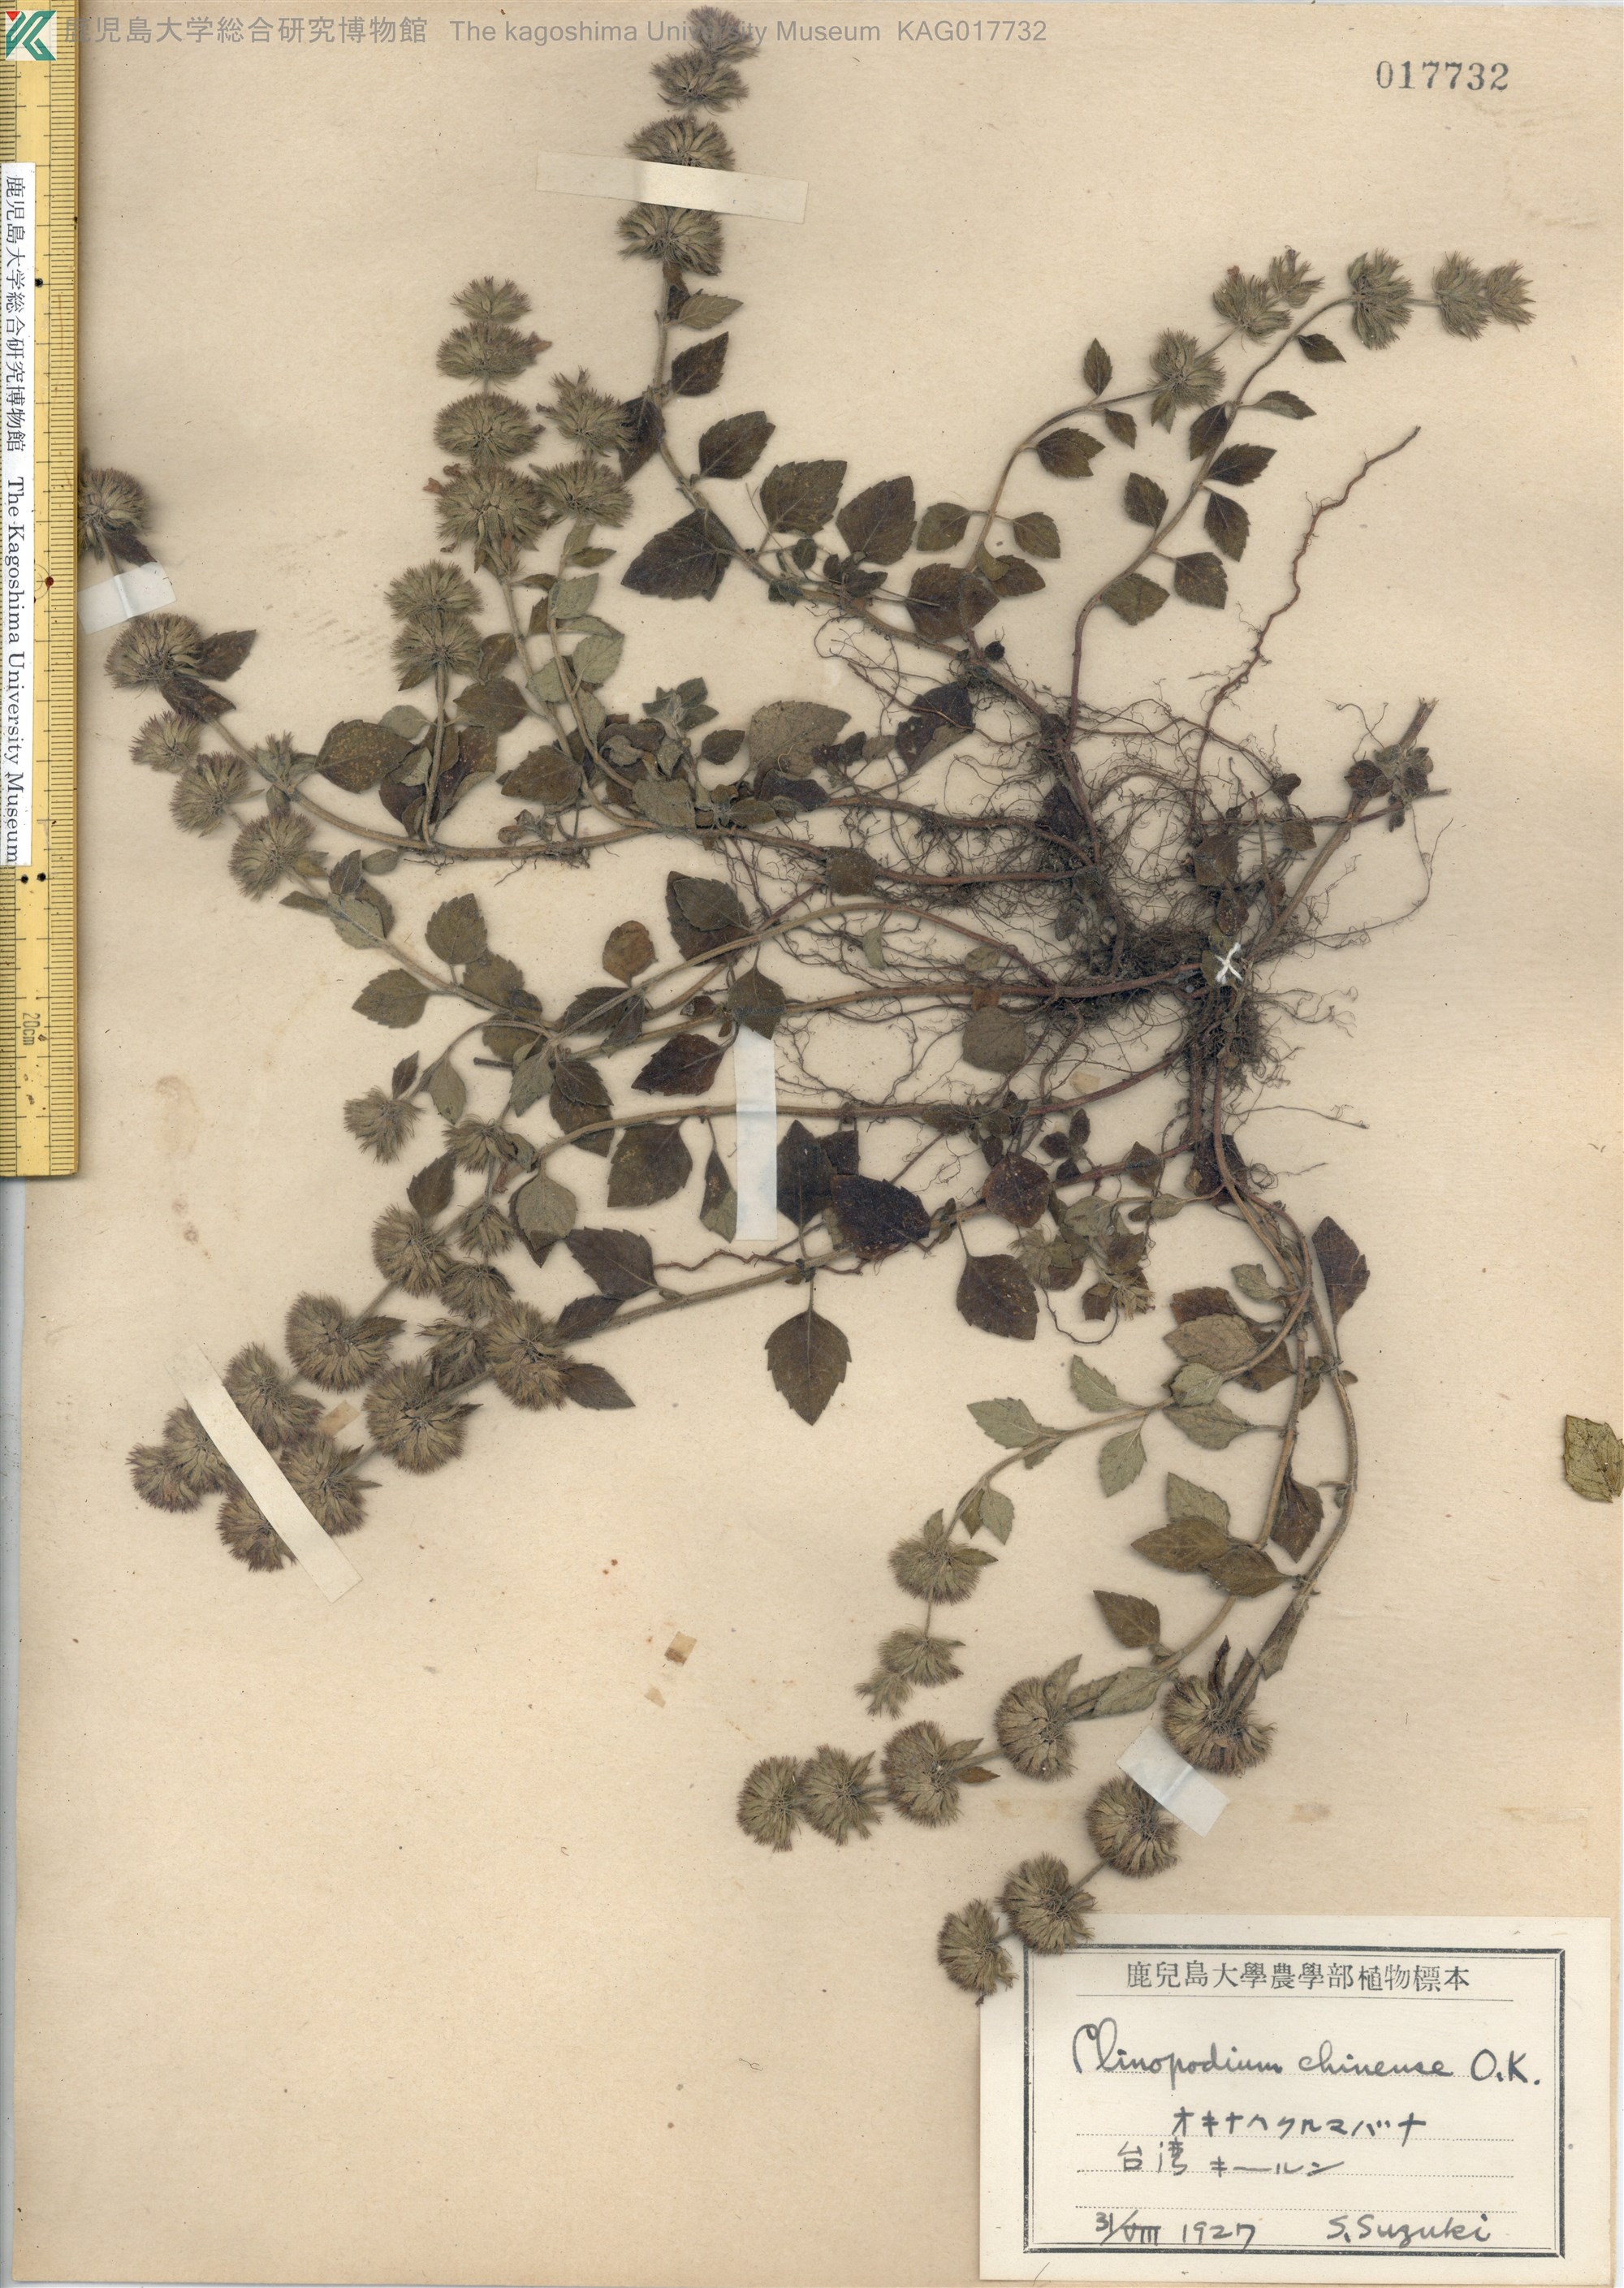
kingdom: Plantae
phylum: Tracheophyta
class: Magnoliopsida
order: Lamiales
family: Lamiaceae
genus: Clinopodium
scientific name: Clinopodium chinense
